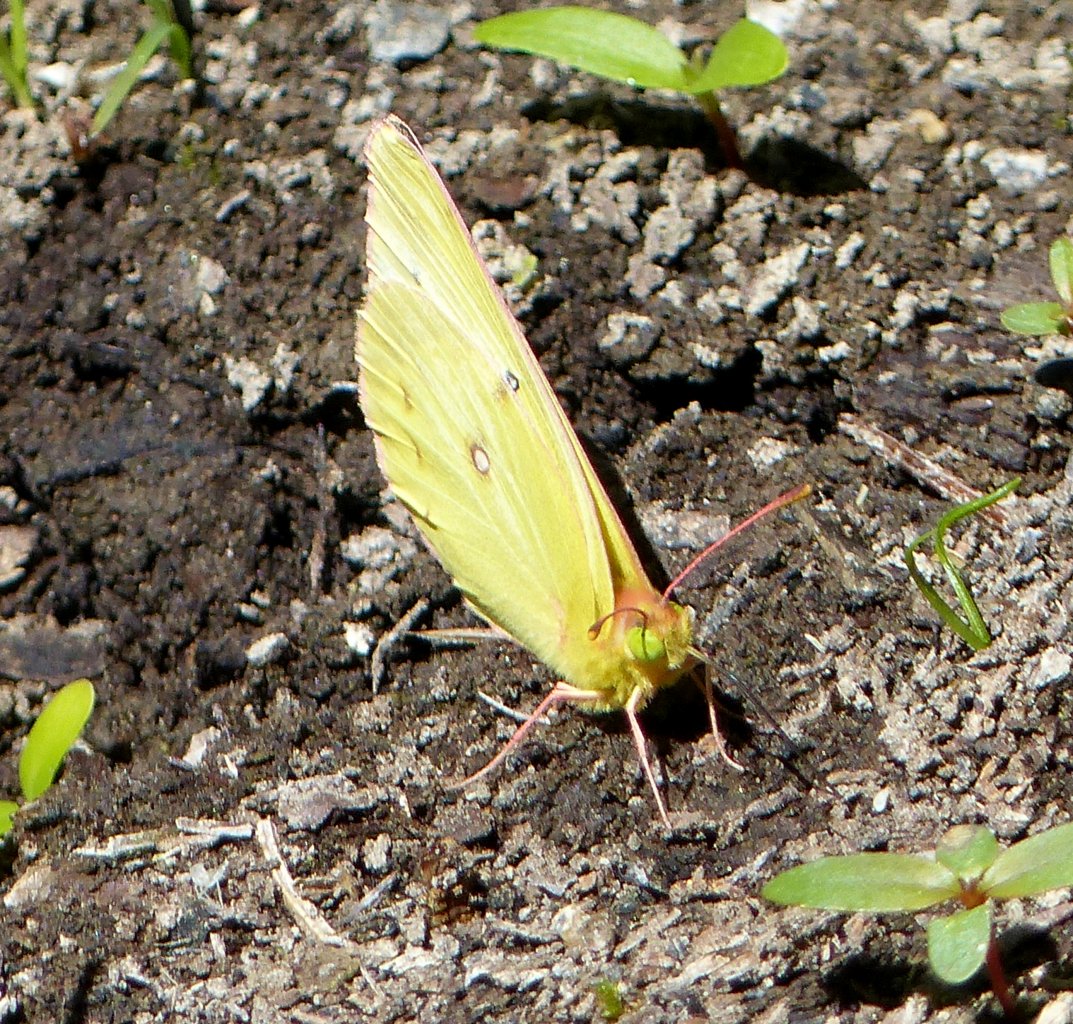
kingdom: Animalia
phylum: Arthropoda
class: Insecta
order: Lepidoptera
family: Pieridae
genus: Colias
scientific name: Colias interior
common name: Pink-edged Sulphur
